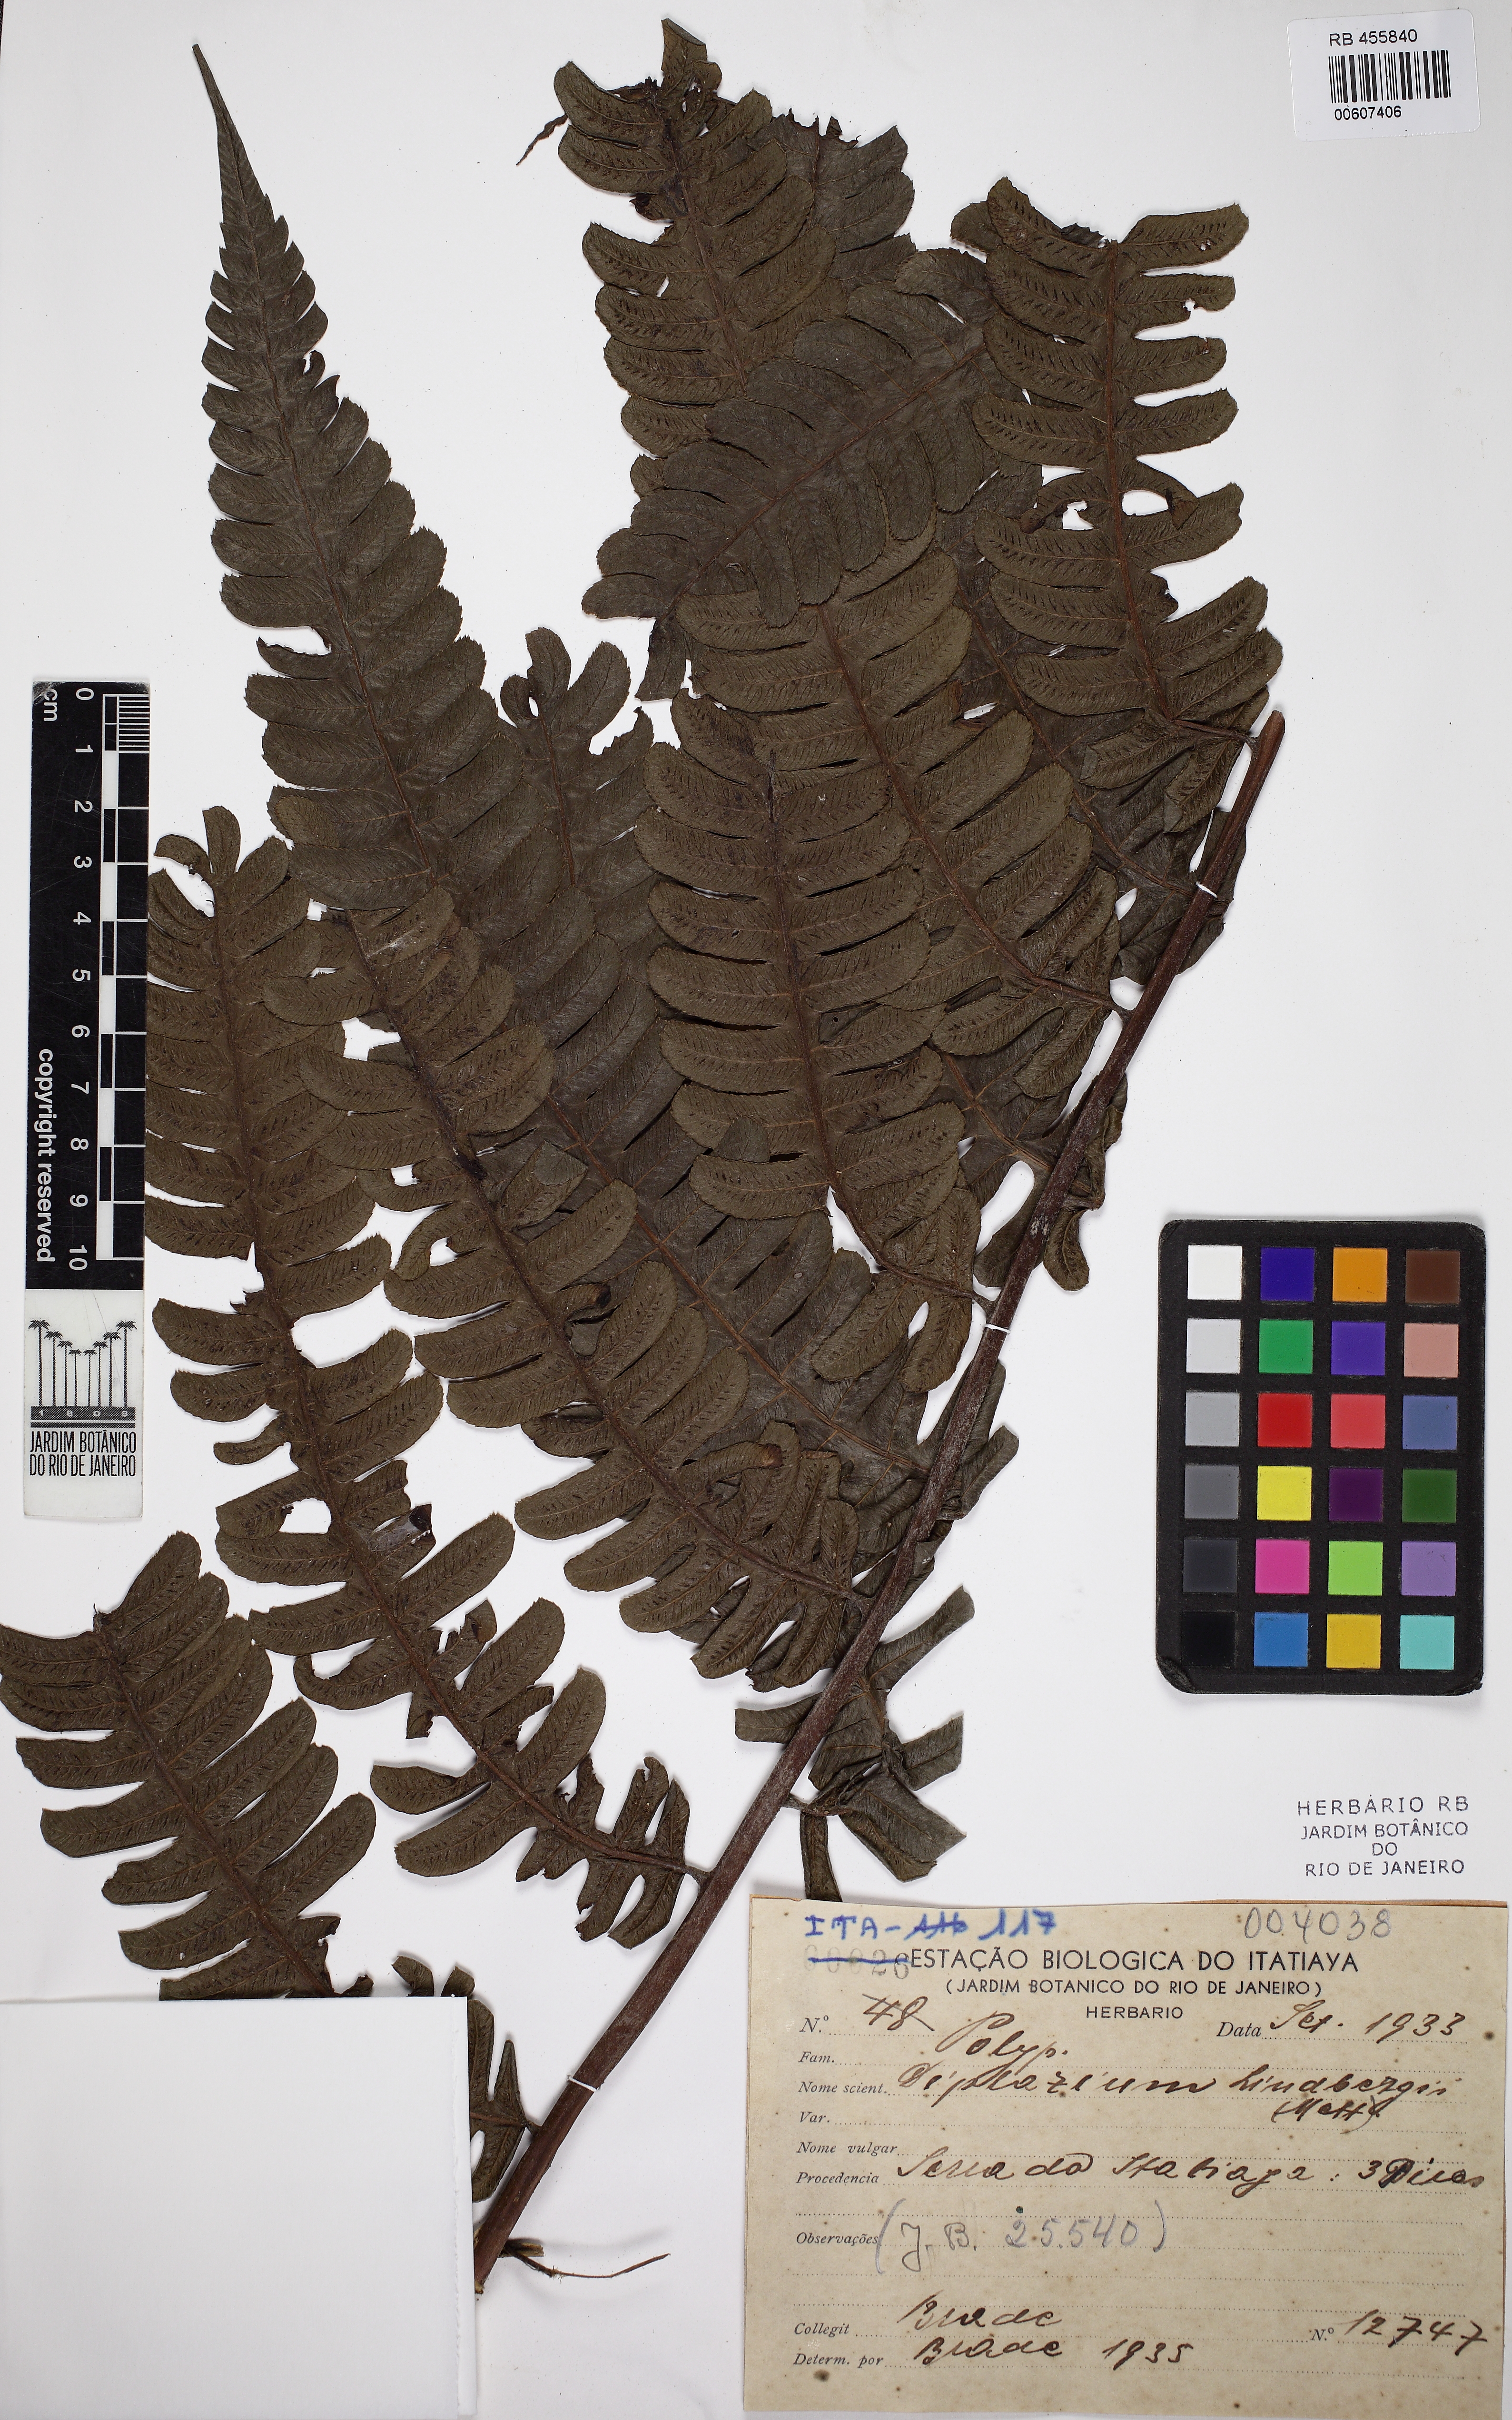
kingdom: Plantae
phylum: Tracheophyta
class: Polypodiopsida
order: Polypodiales
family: Athyriaceae
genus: Diplazium
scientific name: Diplazium lindbergii
